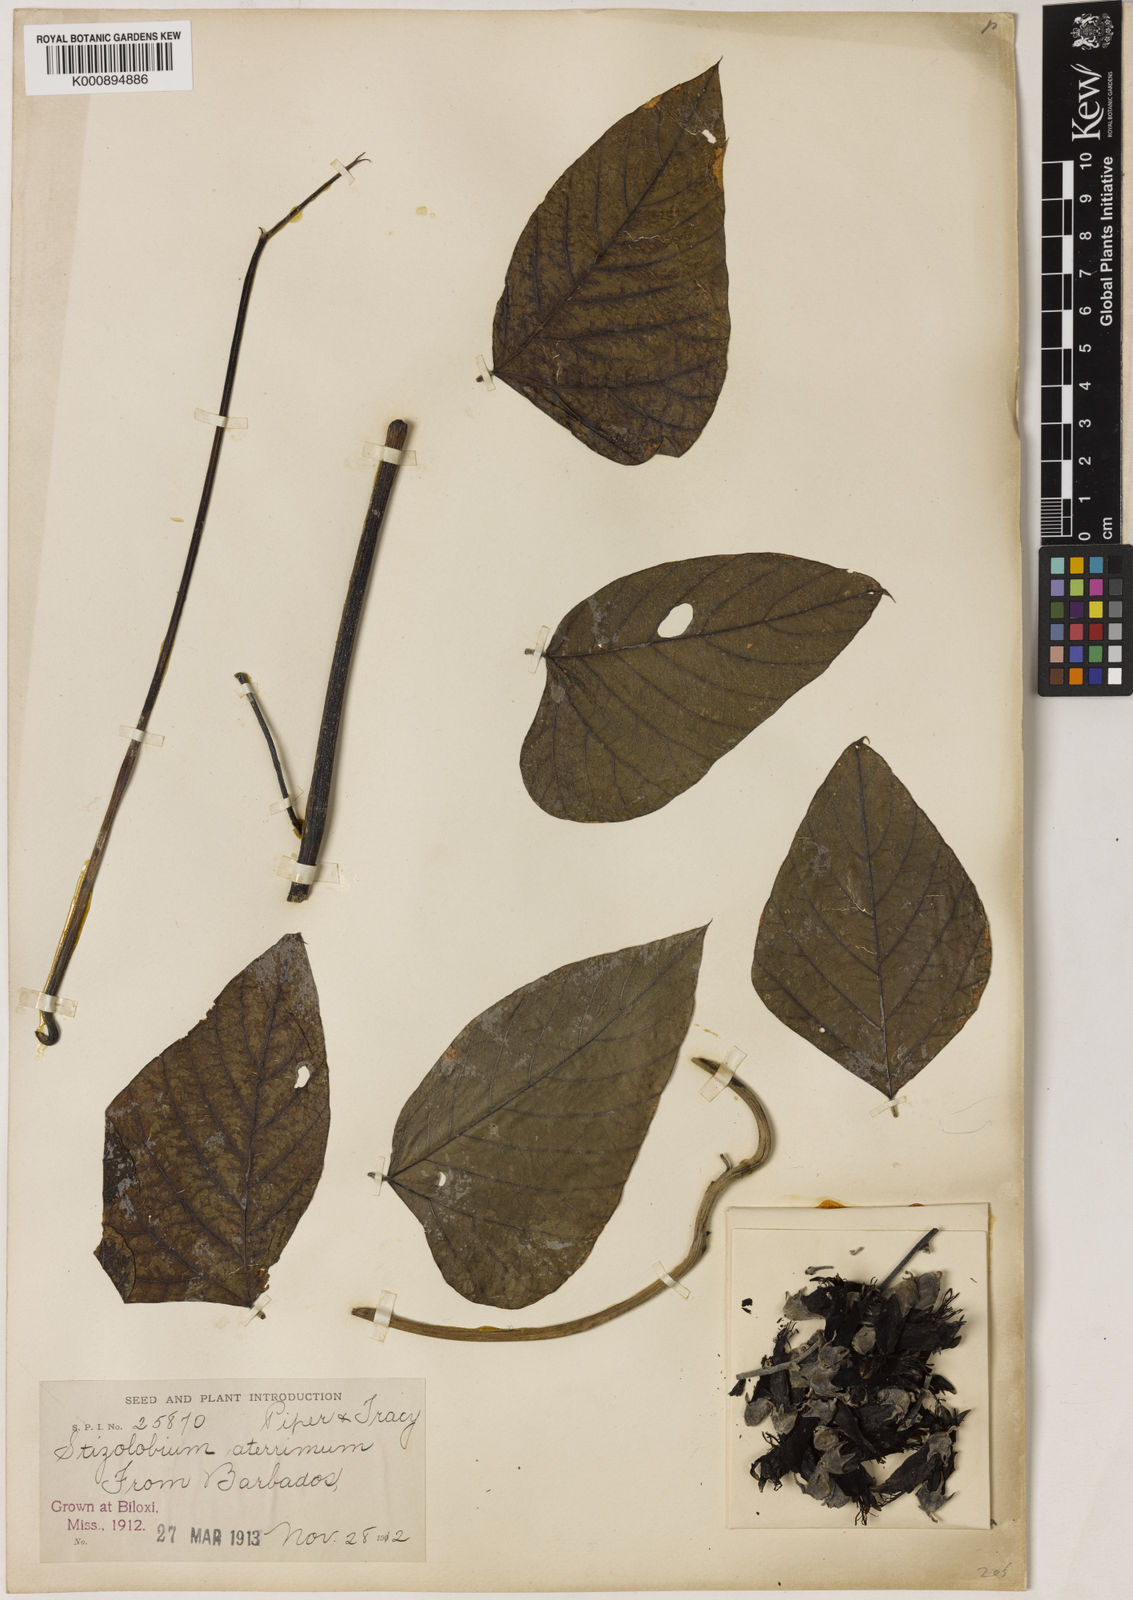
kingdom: Plantae
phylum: Tracheophyta
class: Magnoliopsida
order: Fabales
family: Fabaceae
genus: Mucuna
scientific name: Mucuna pruriens
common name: Cow-itch
